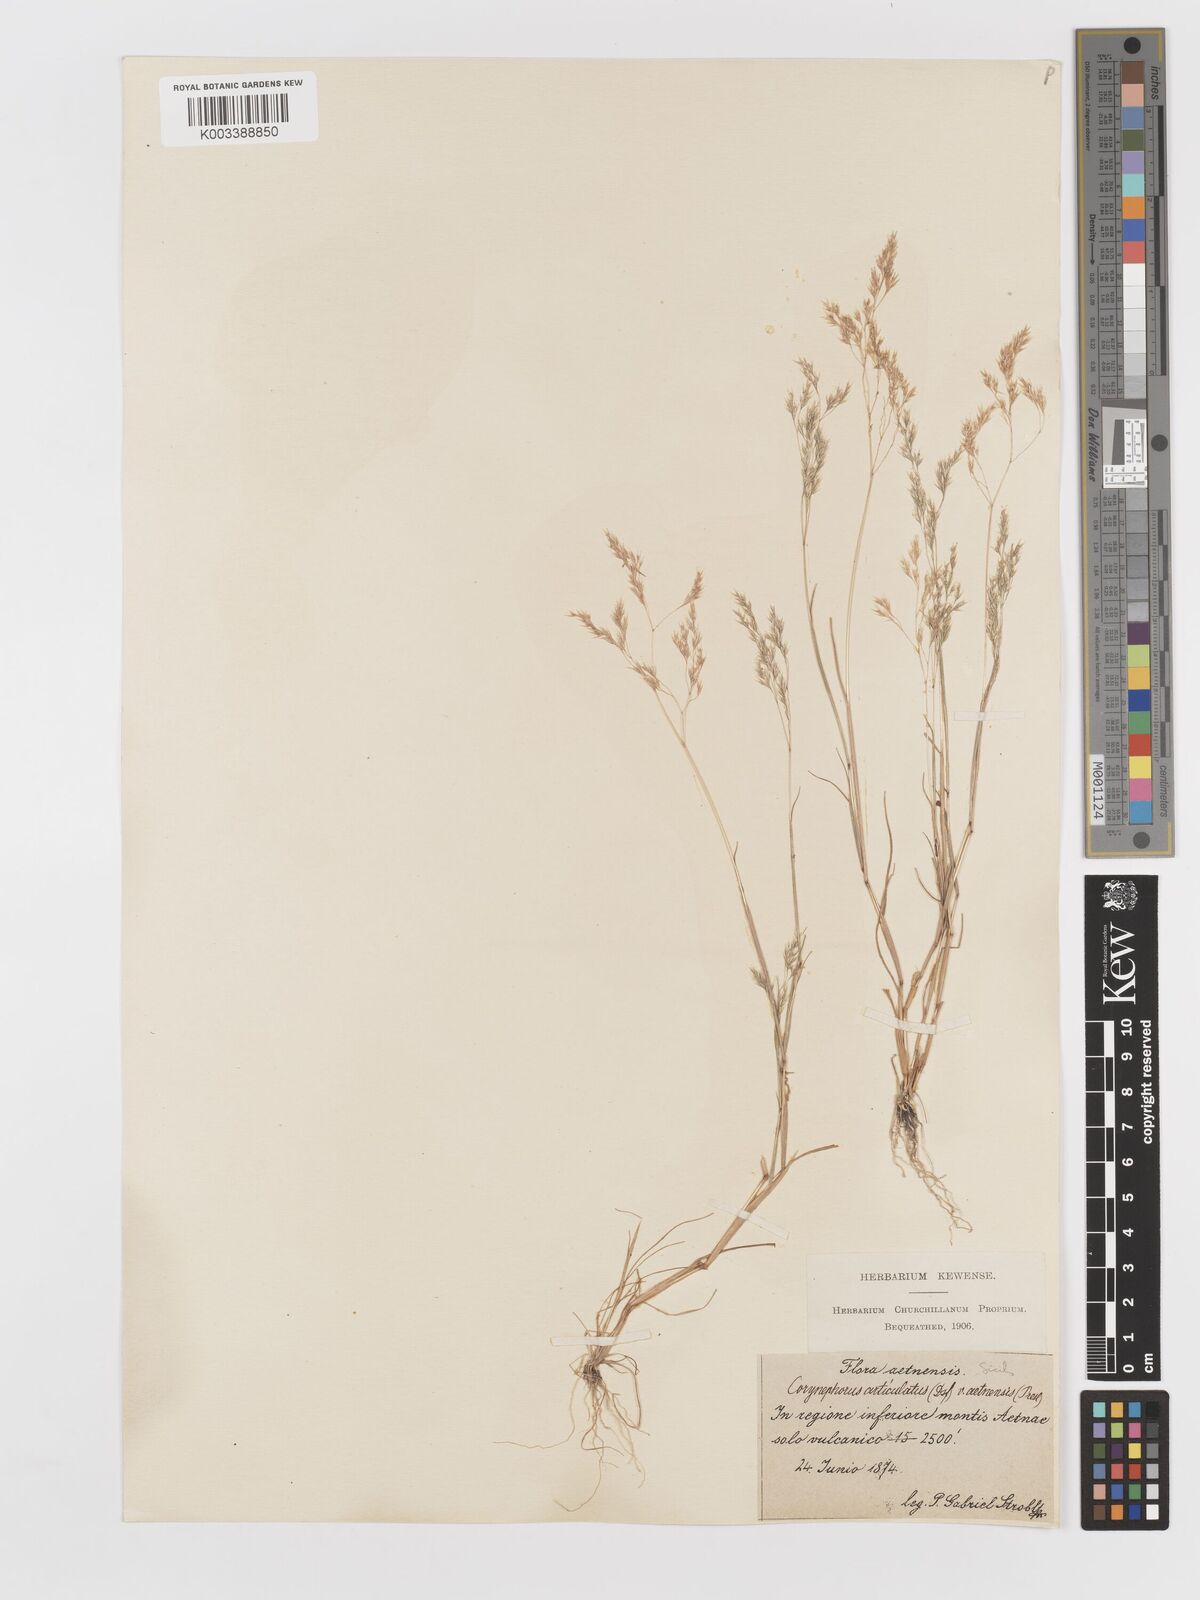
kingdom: Plantae
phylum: Tracheophyta
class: Liliopsida
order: Poales
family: Poaceae
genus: Corynephorus
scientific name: Corynephorus divaricatus
